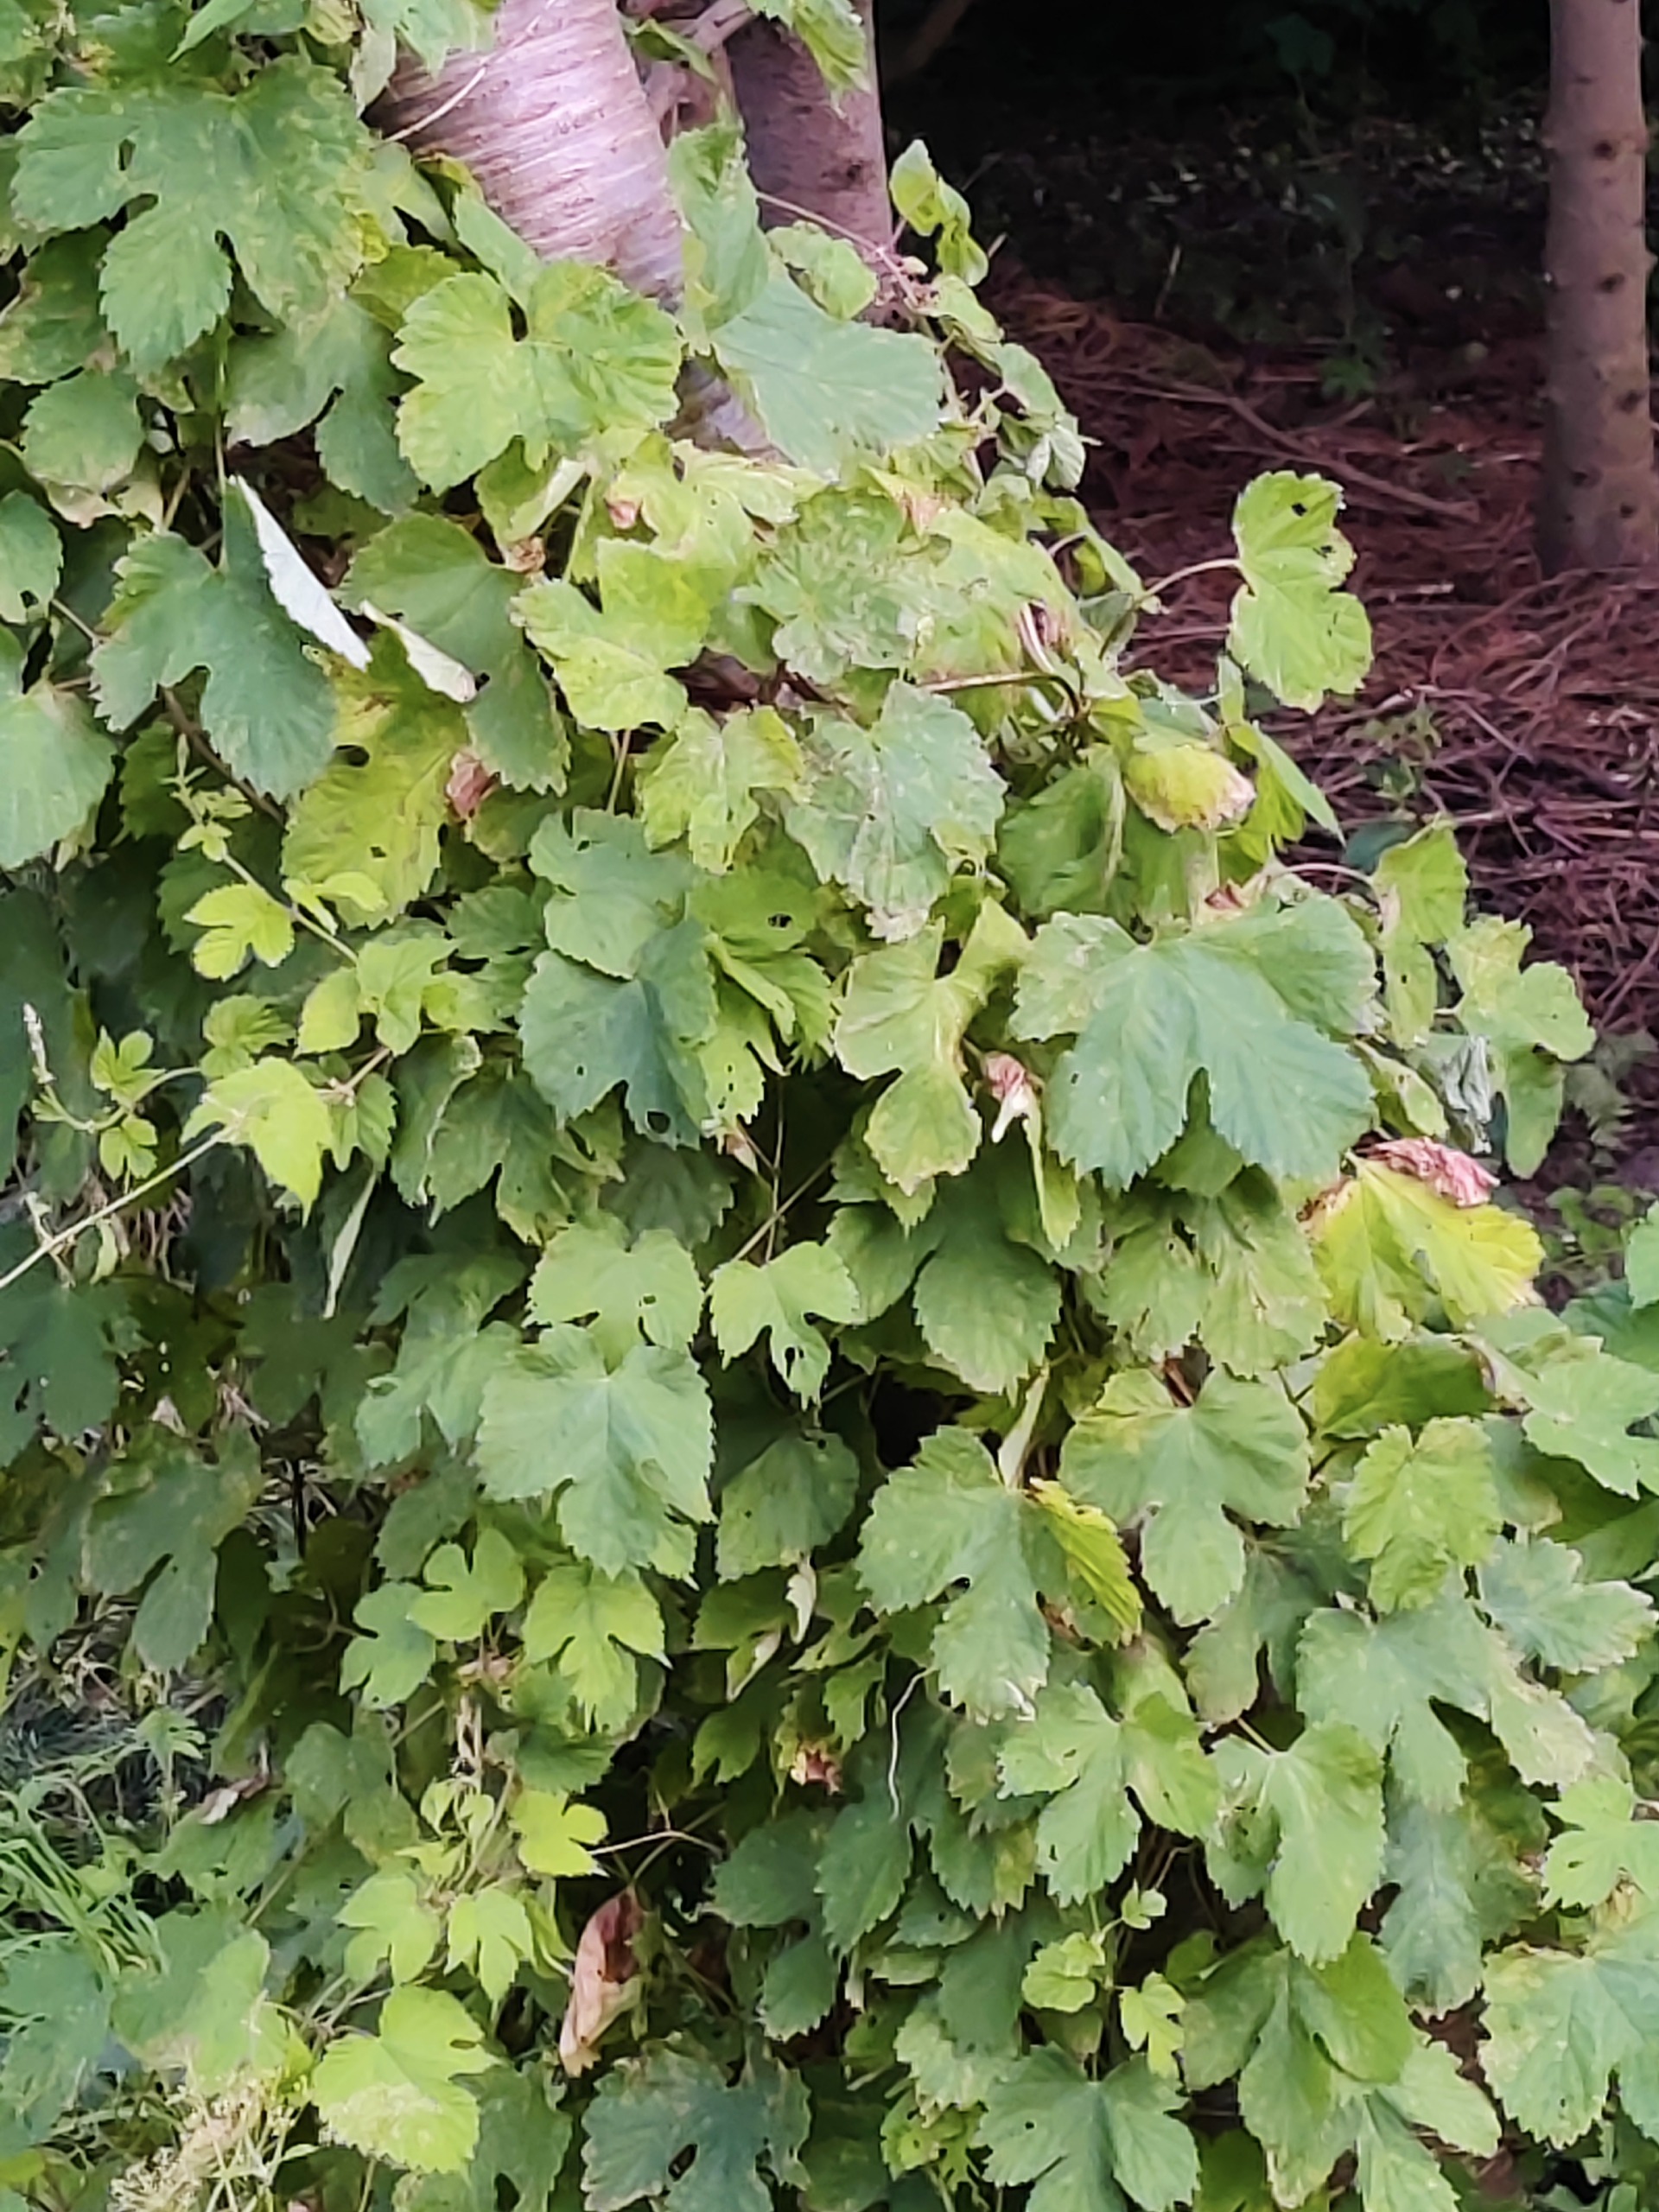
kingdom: Plantae
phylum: Tracheophyta
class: Magnoliopsida
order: Rosales
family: Cannabaceae
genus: Humulus
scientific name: Humulus lupulus
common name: Humle
